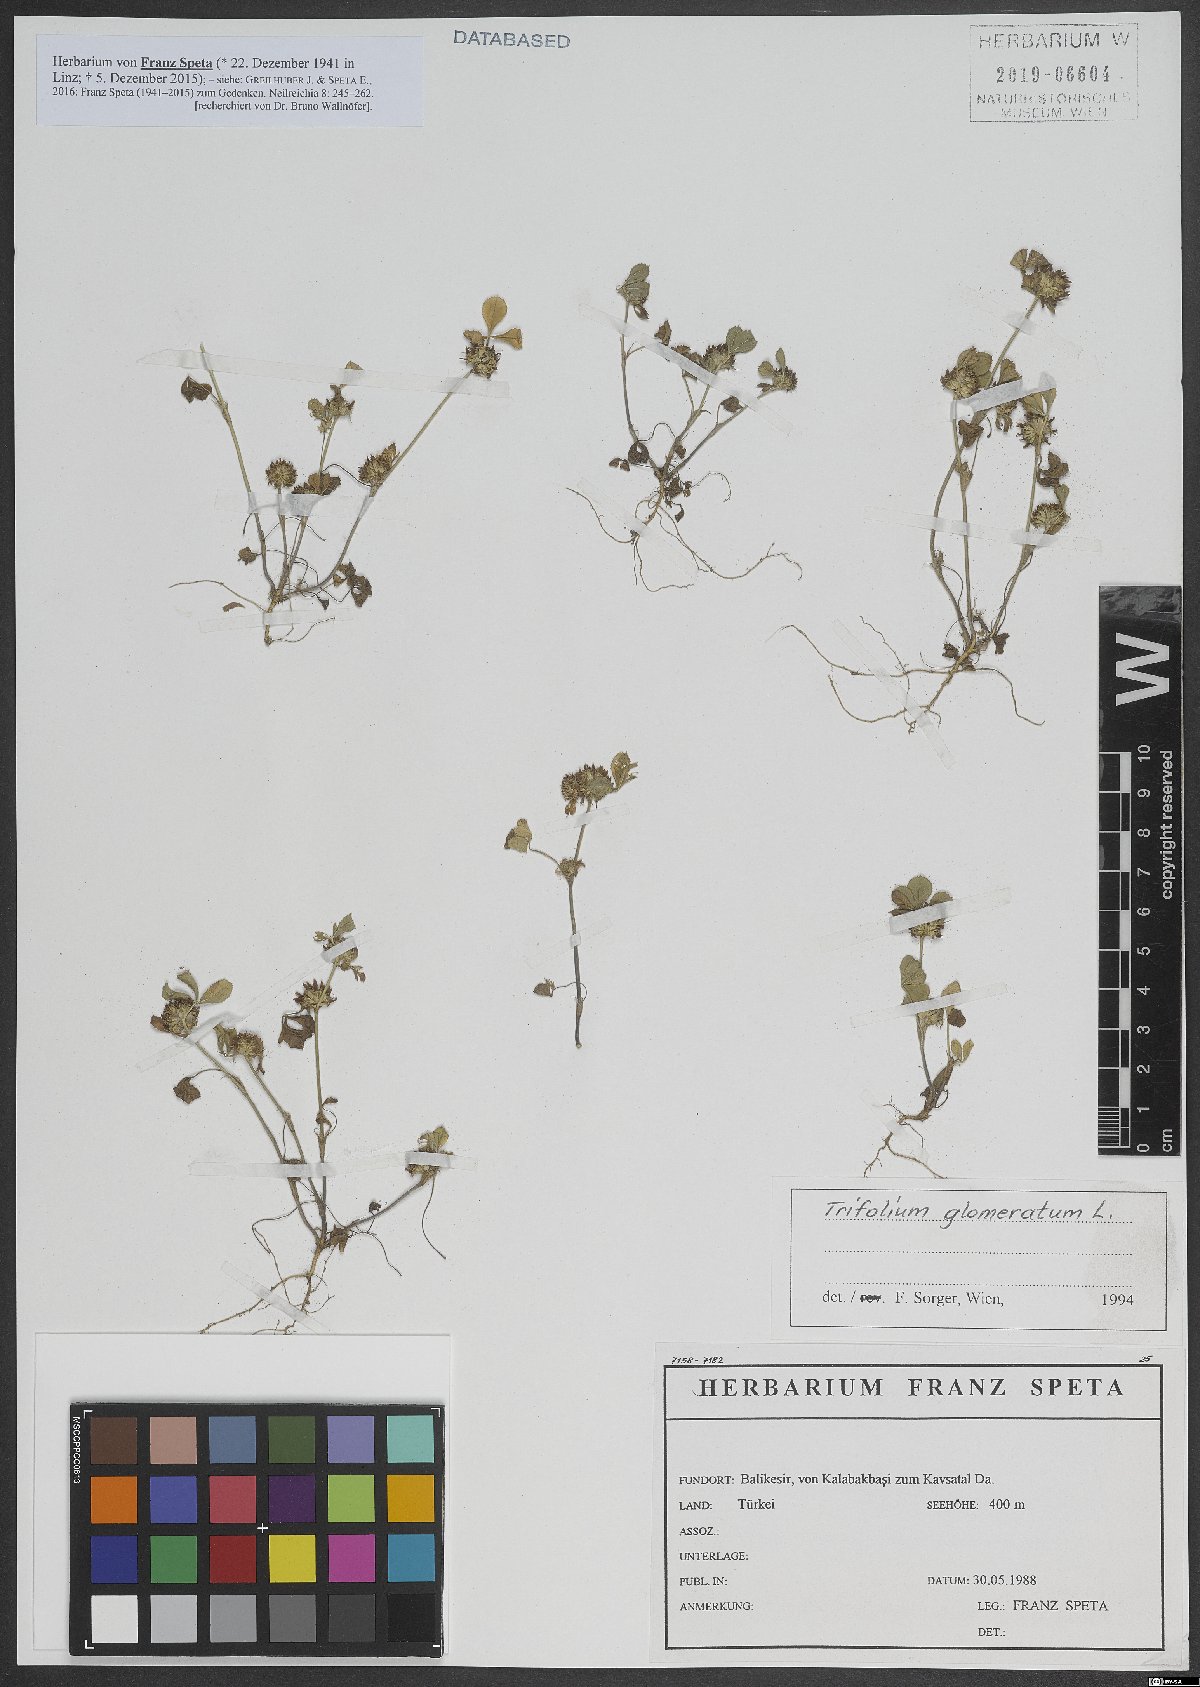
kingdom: Plantae
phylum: Tracheophyta
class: Magnoliopsida
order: Fabales
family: Fabaceae
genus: Trifolium
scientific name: Trifolium glomeratum
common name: Clustered clover
